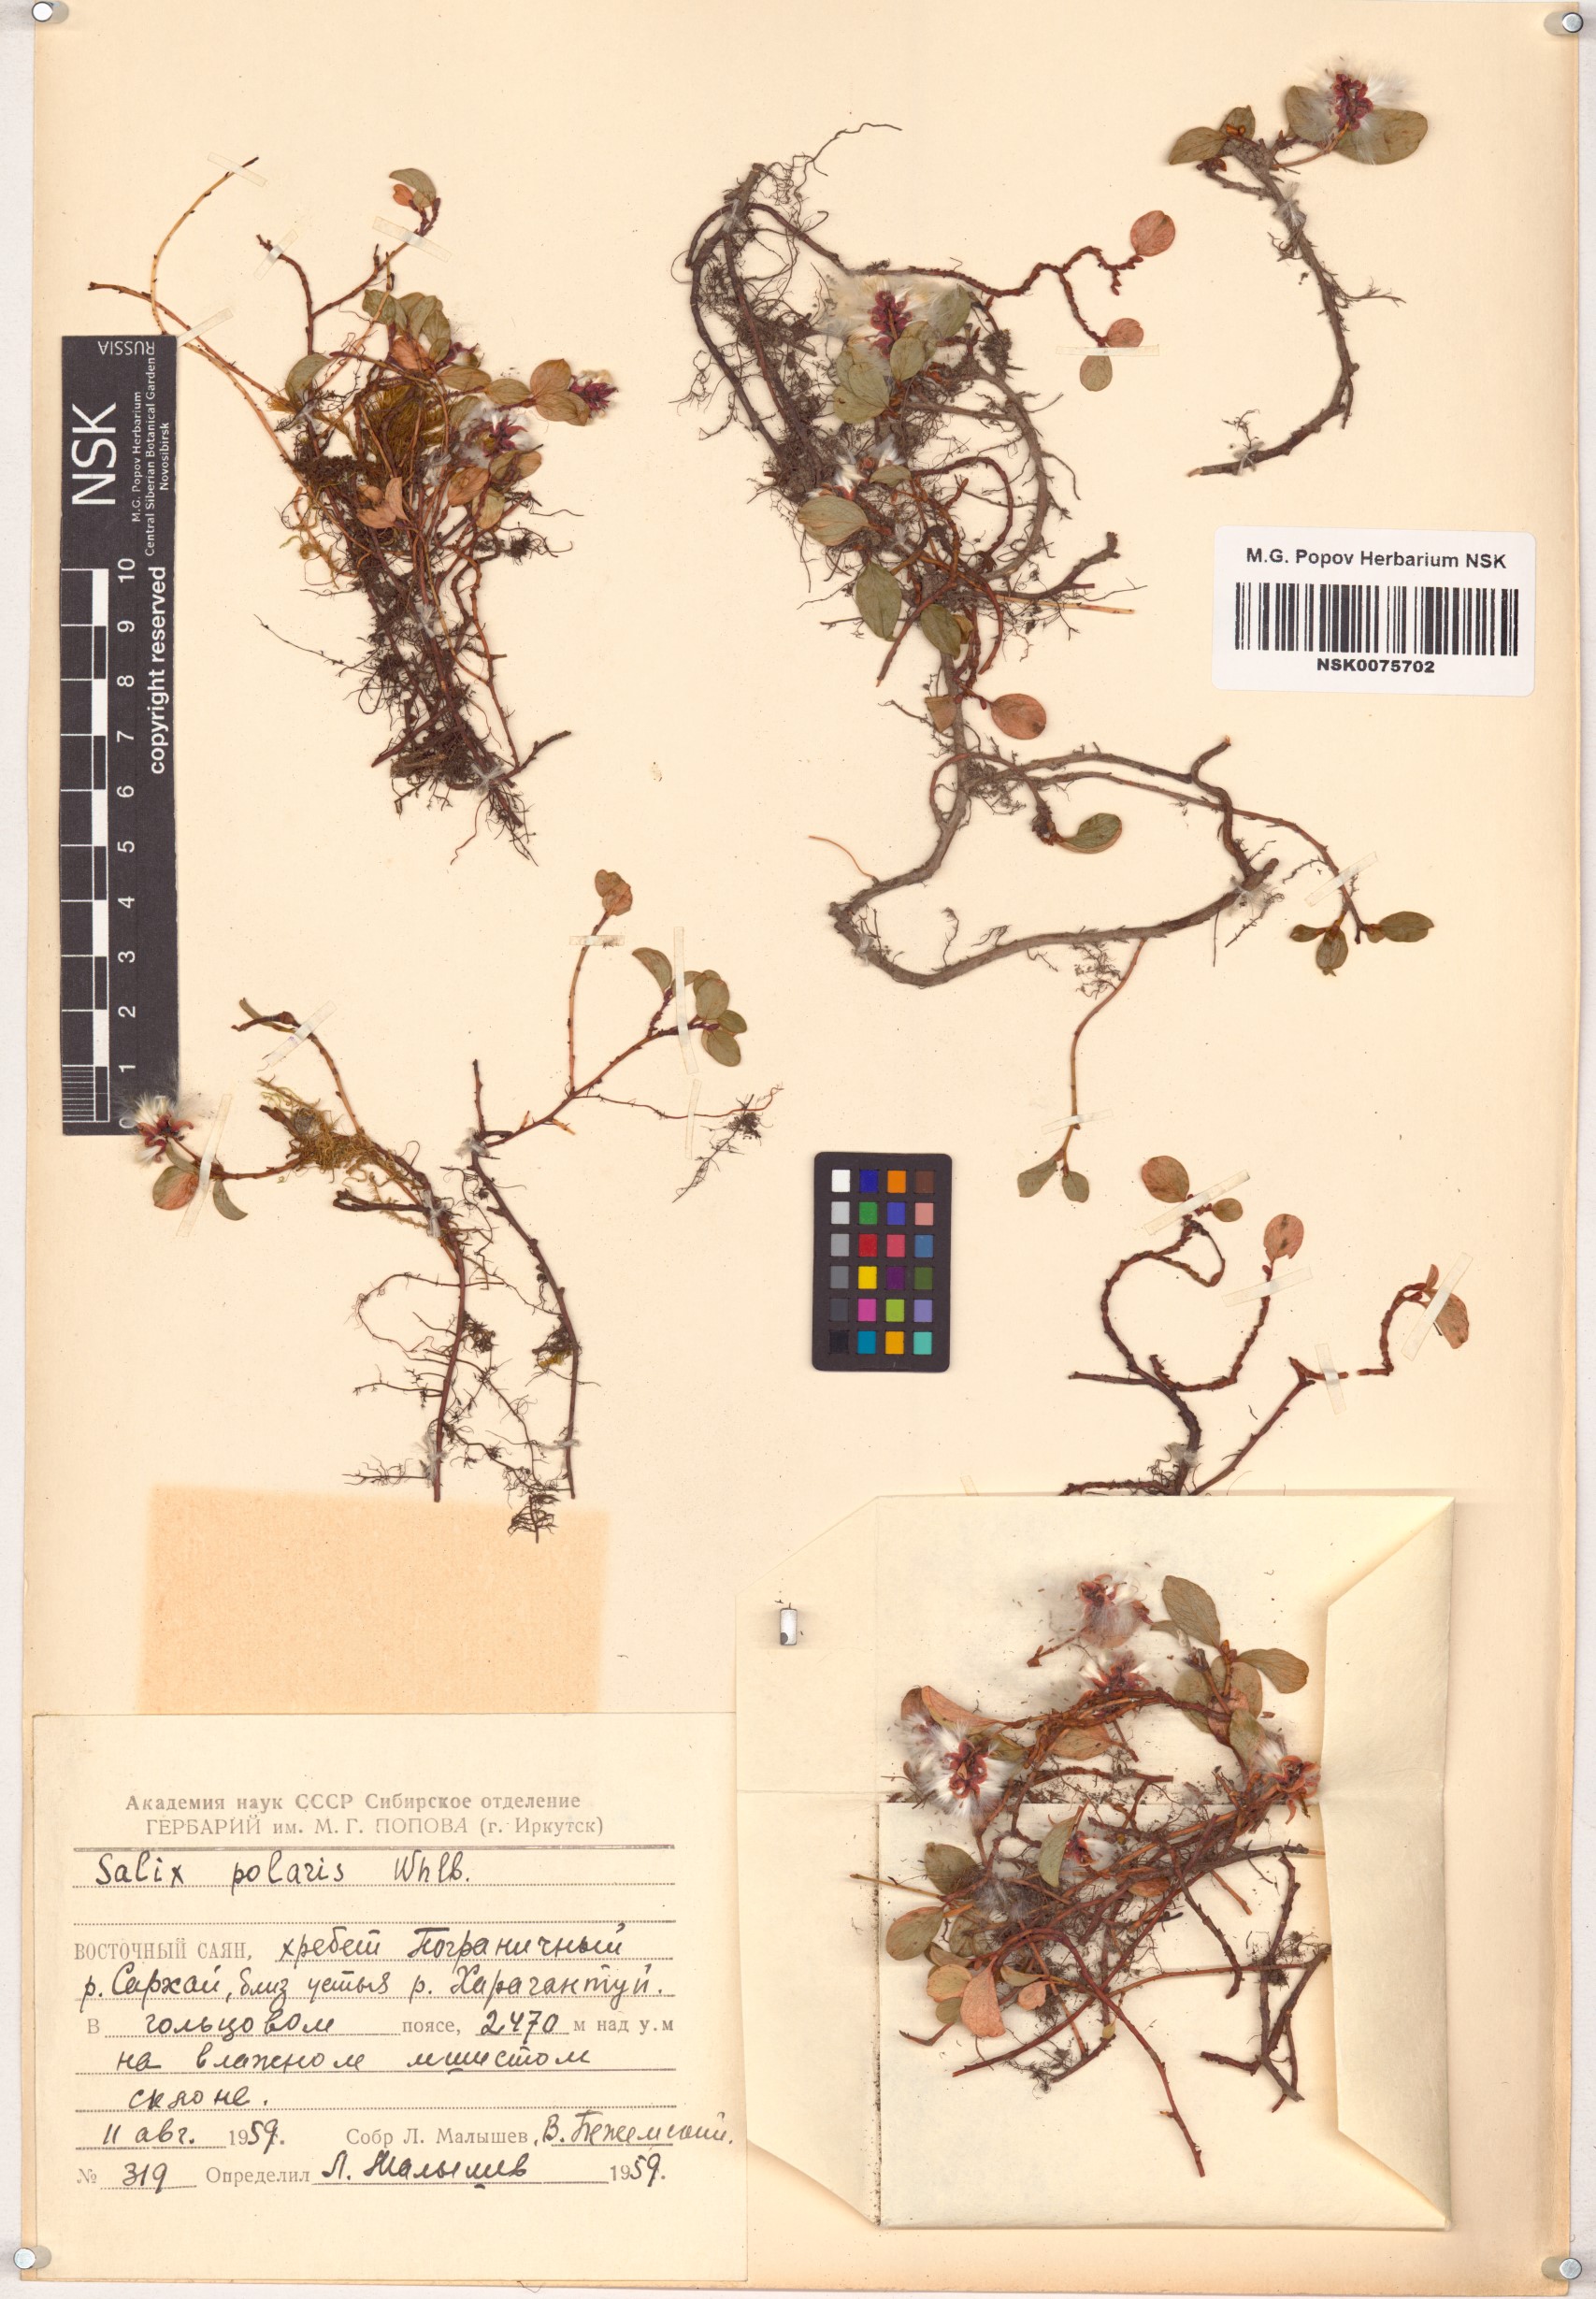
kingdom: Plantae
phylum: Tracheophyta
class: Magnoliopsida
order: Malpighiales
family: Salicaceae
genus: Salix
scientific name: Salix polaris
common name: Polar willow
